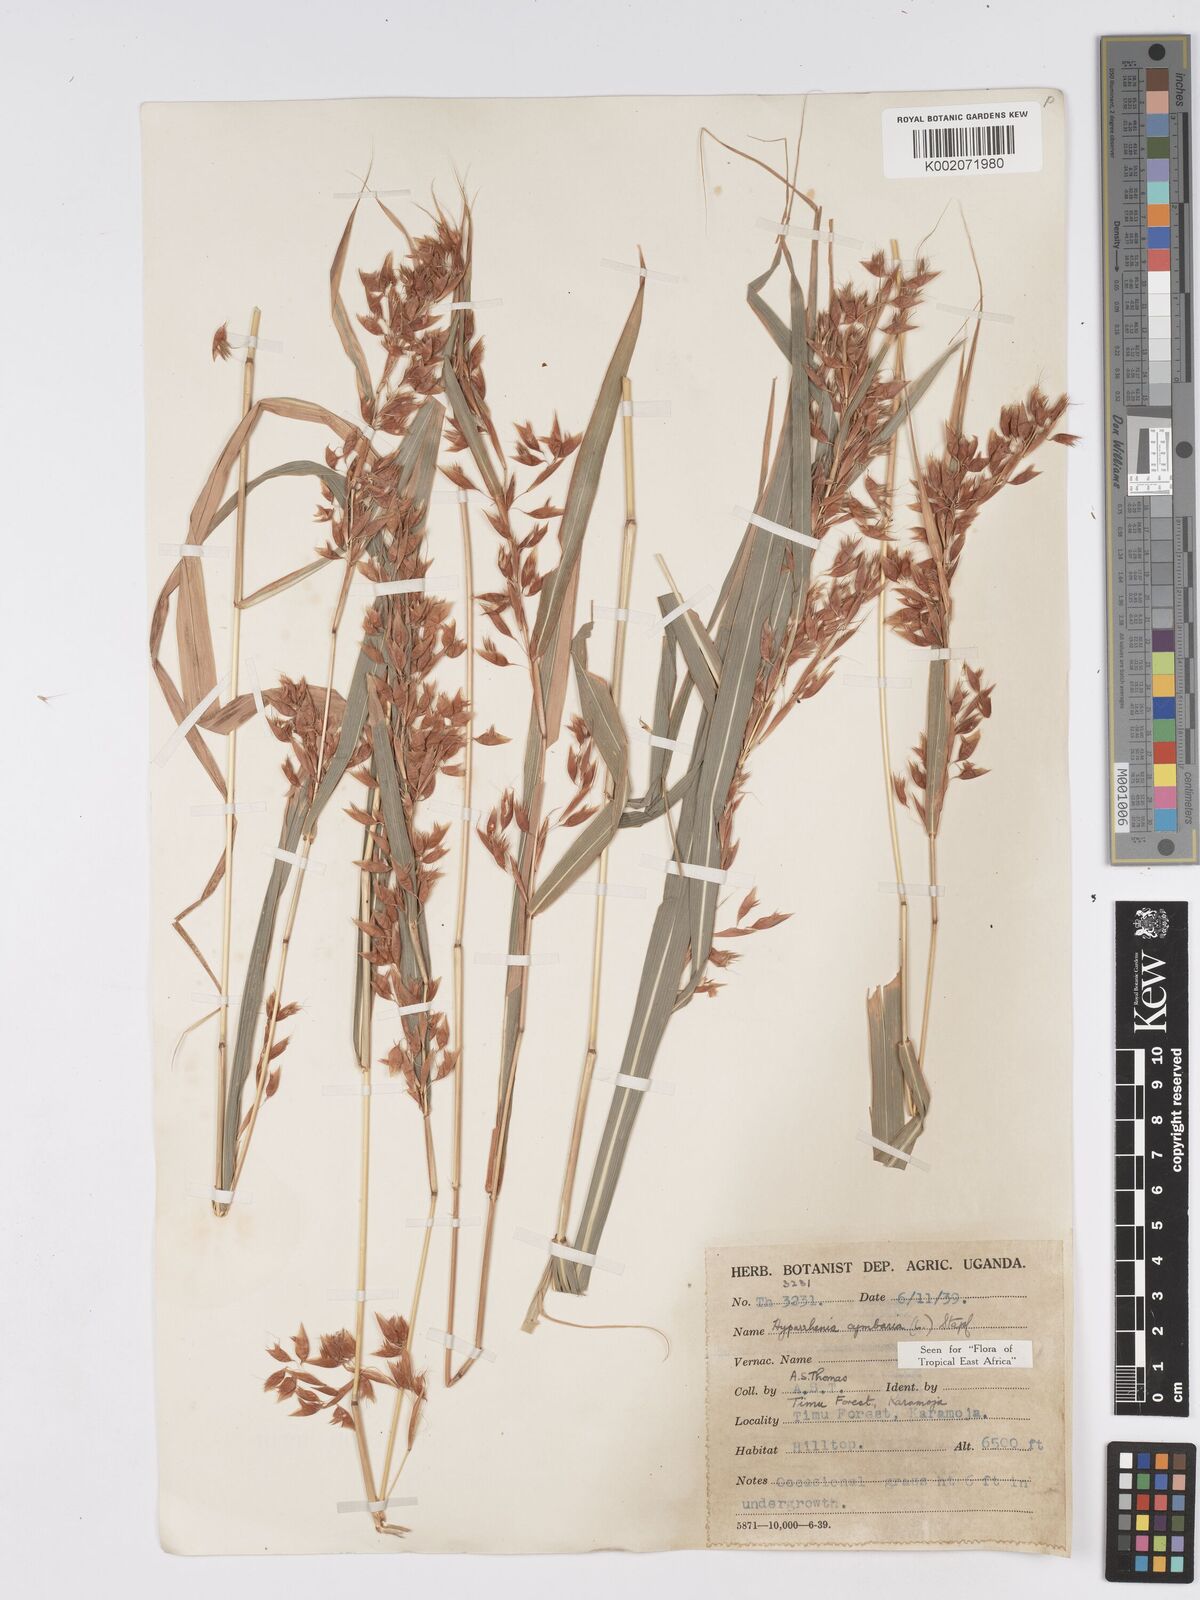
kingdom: Plantae
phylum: Tracheophyta
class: Liliopsida
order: Poales
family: Poaceae
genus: Hyparrhenia
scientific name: Hyparrhenia cymbaria
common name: Boat thatching grass
